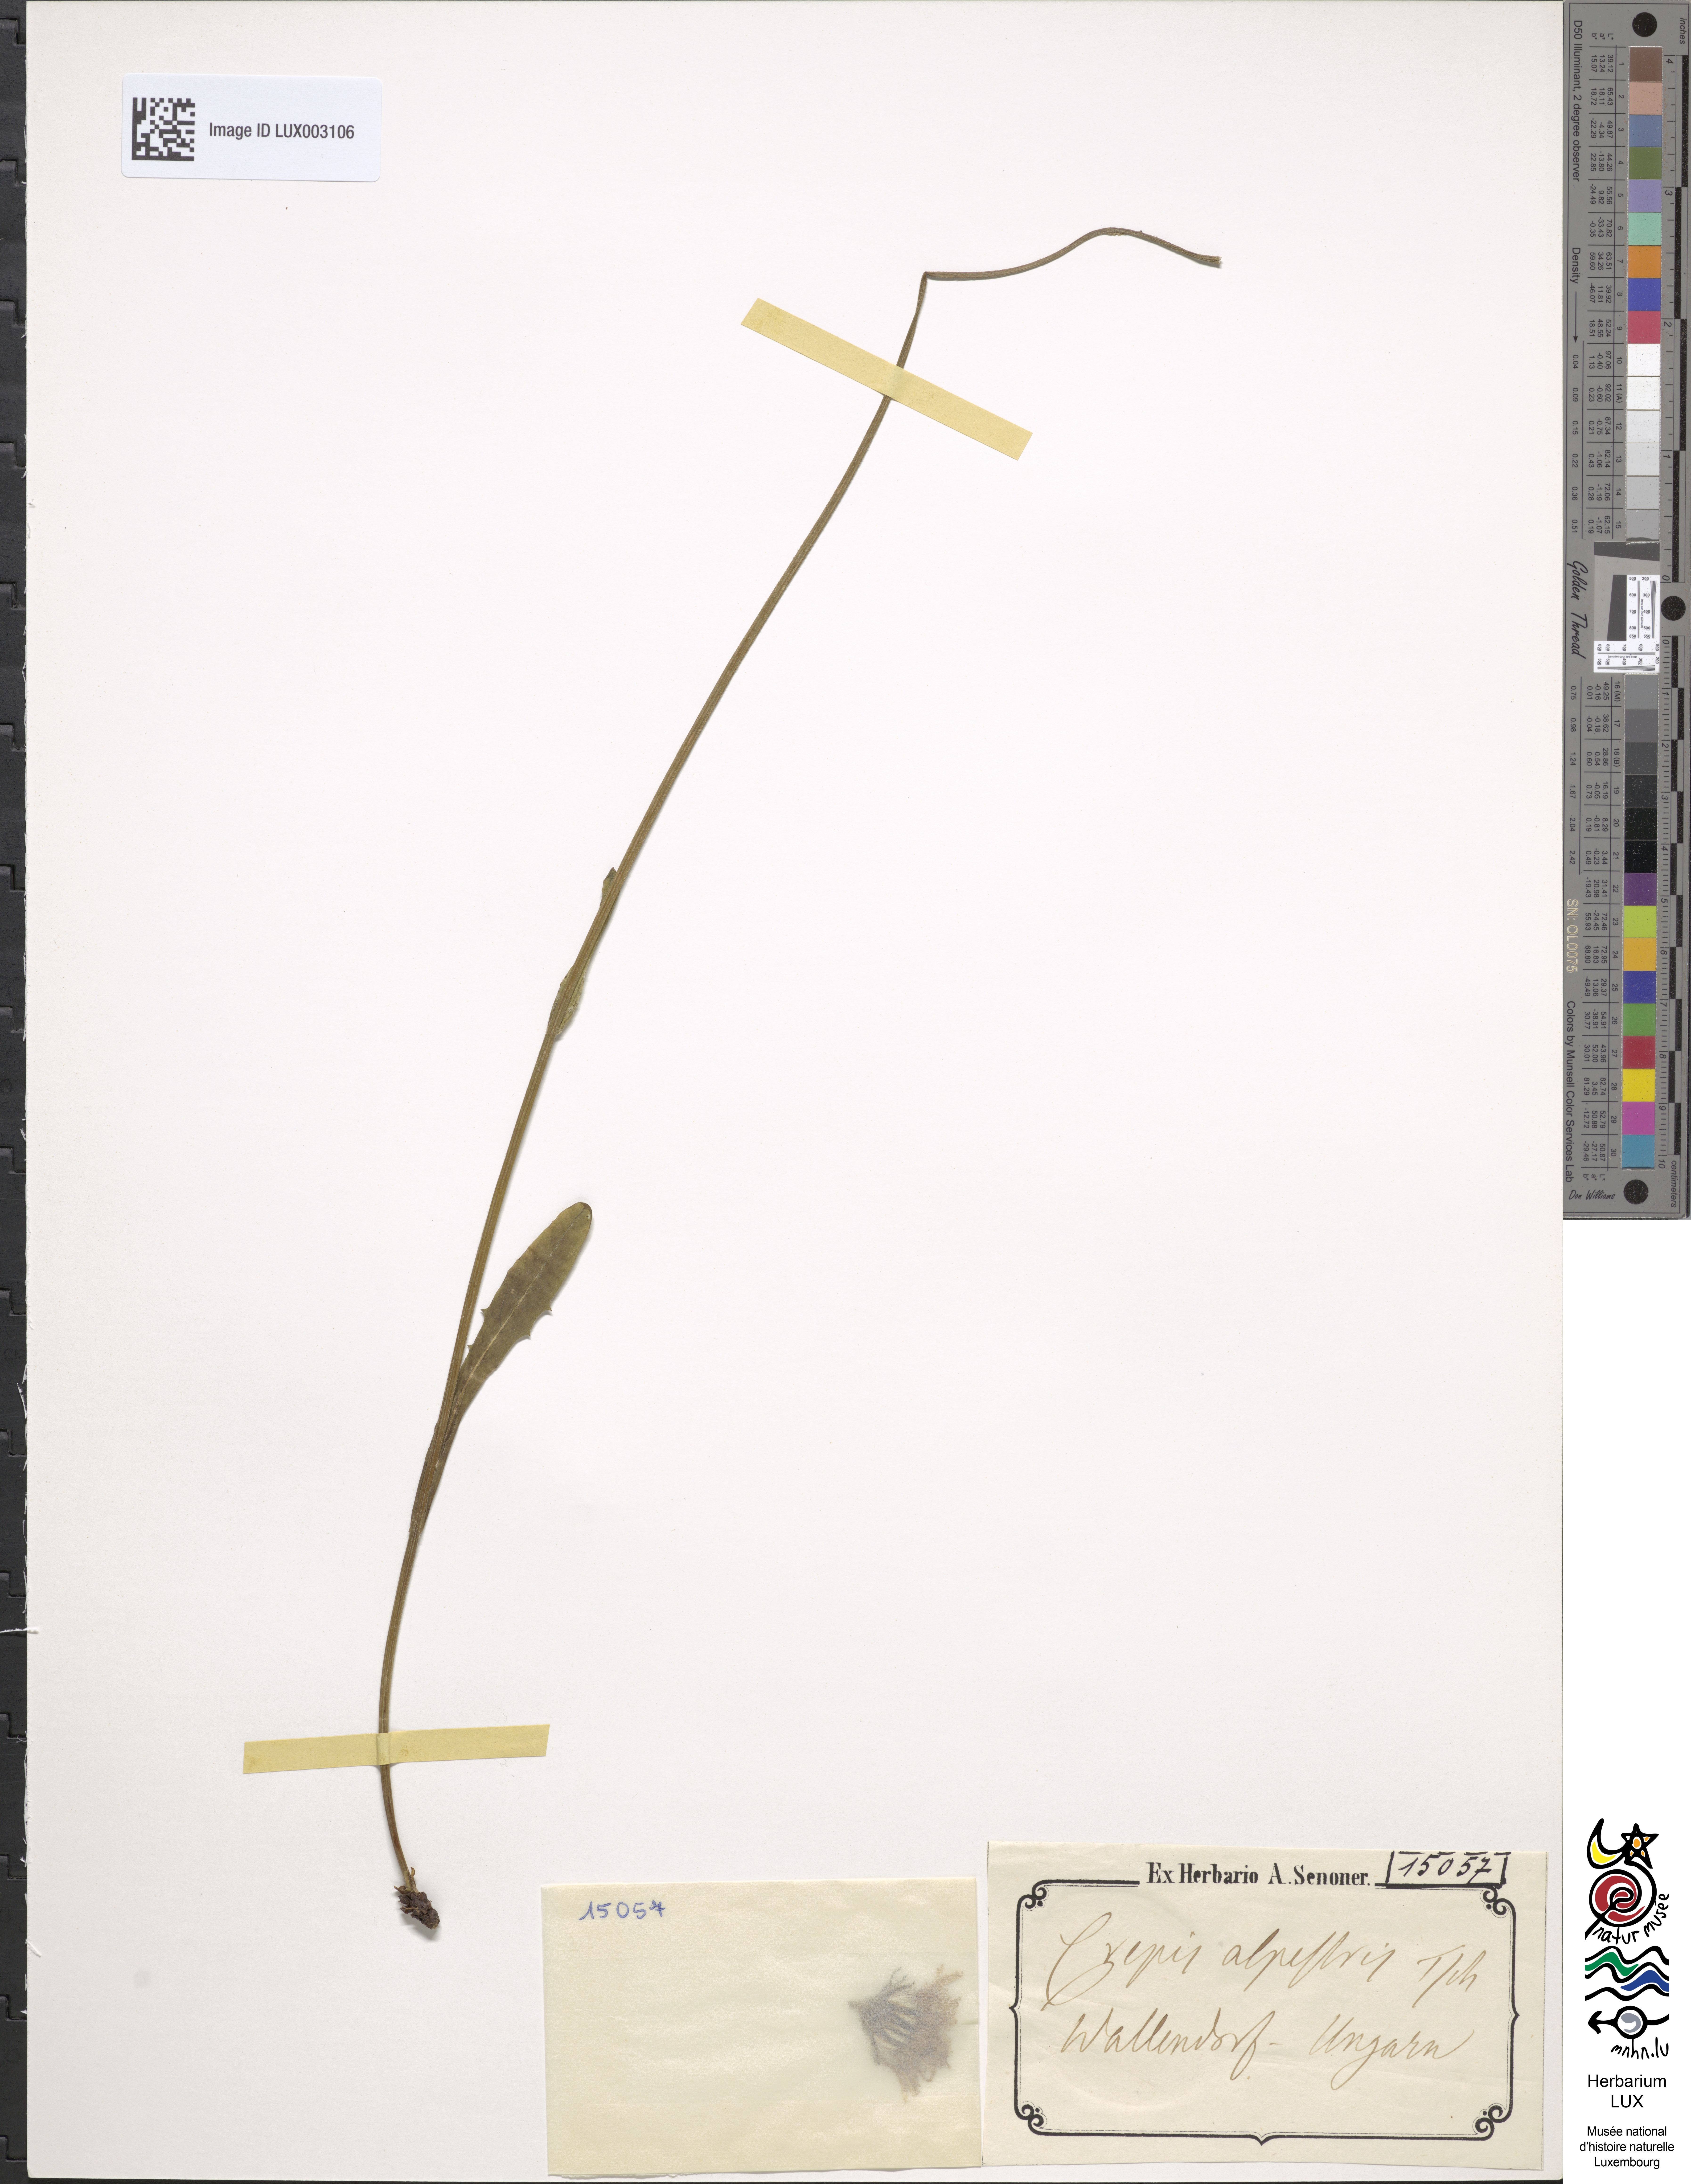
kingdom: Plantae
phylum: Tracheophyta
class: Magnoliopsida
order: Asterales
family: Asteraceae
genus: Crepis
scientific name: Crepis alpestris
